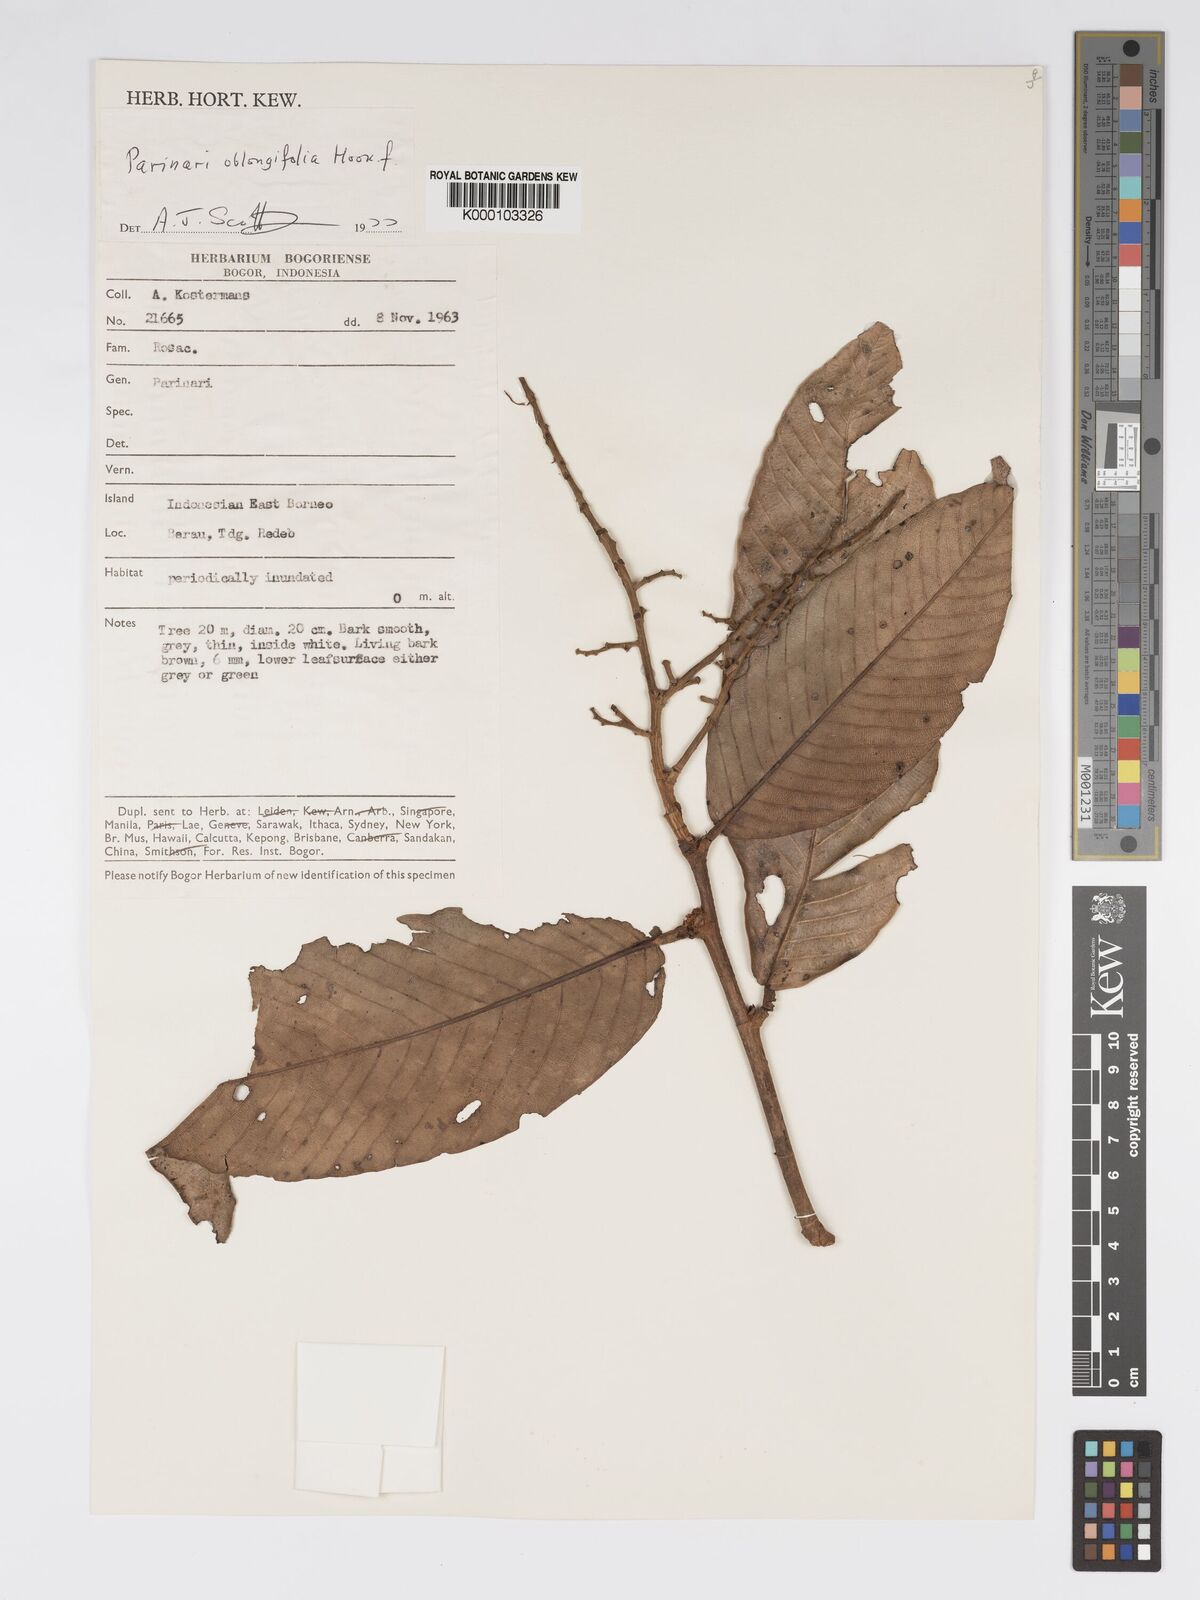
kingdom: Plantae
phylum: Tracheophyta
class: Magnoliopsida
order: Malpighiales
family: Chrysobalanaceae
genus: Parinari
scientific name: Parinari oblongifolia
